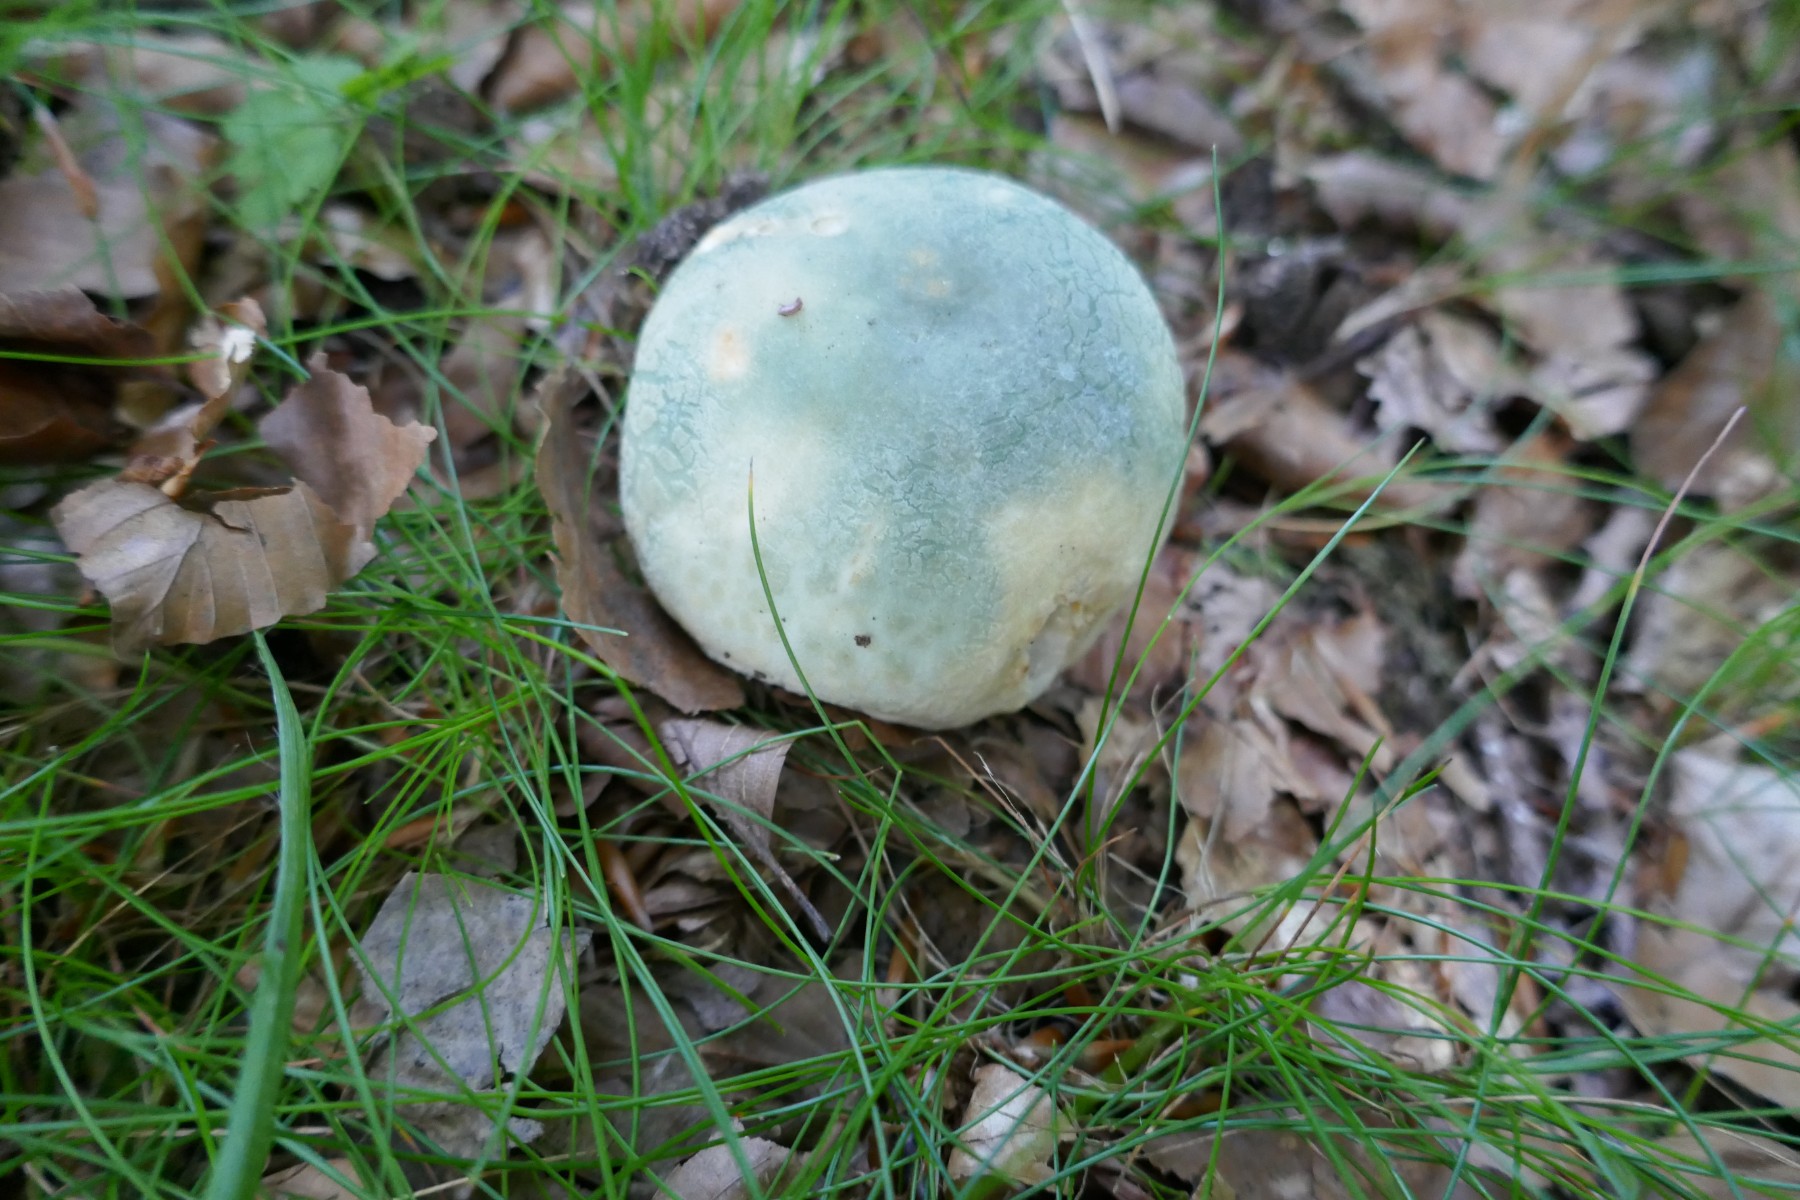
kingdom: Fungi
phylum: Basidiomycota
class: Agaricomycetes
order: Russulales
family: Russulaceae
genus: Russula
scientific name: Russula virescens
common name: spanskgrøn skørhat
